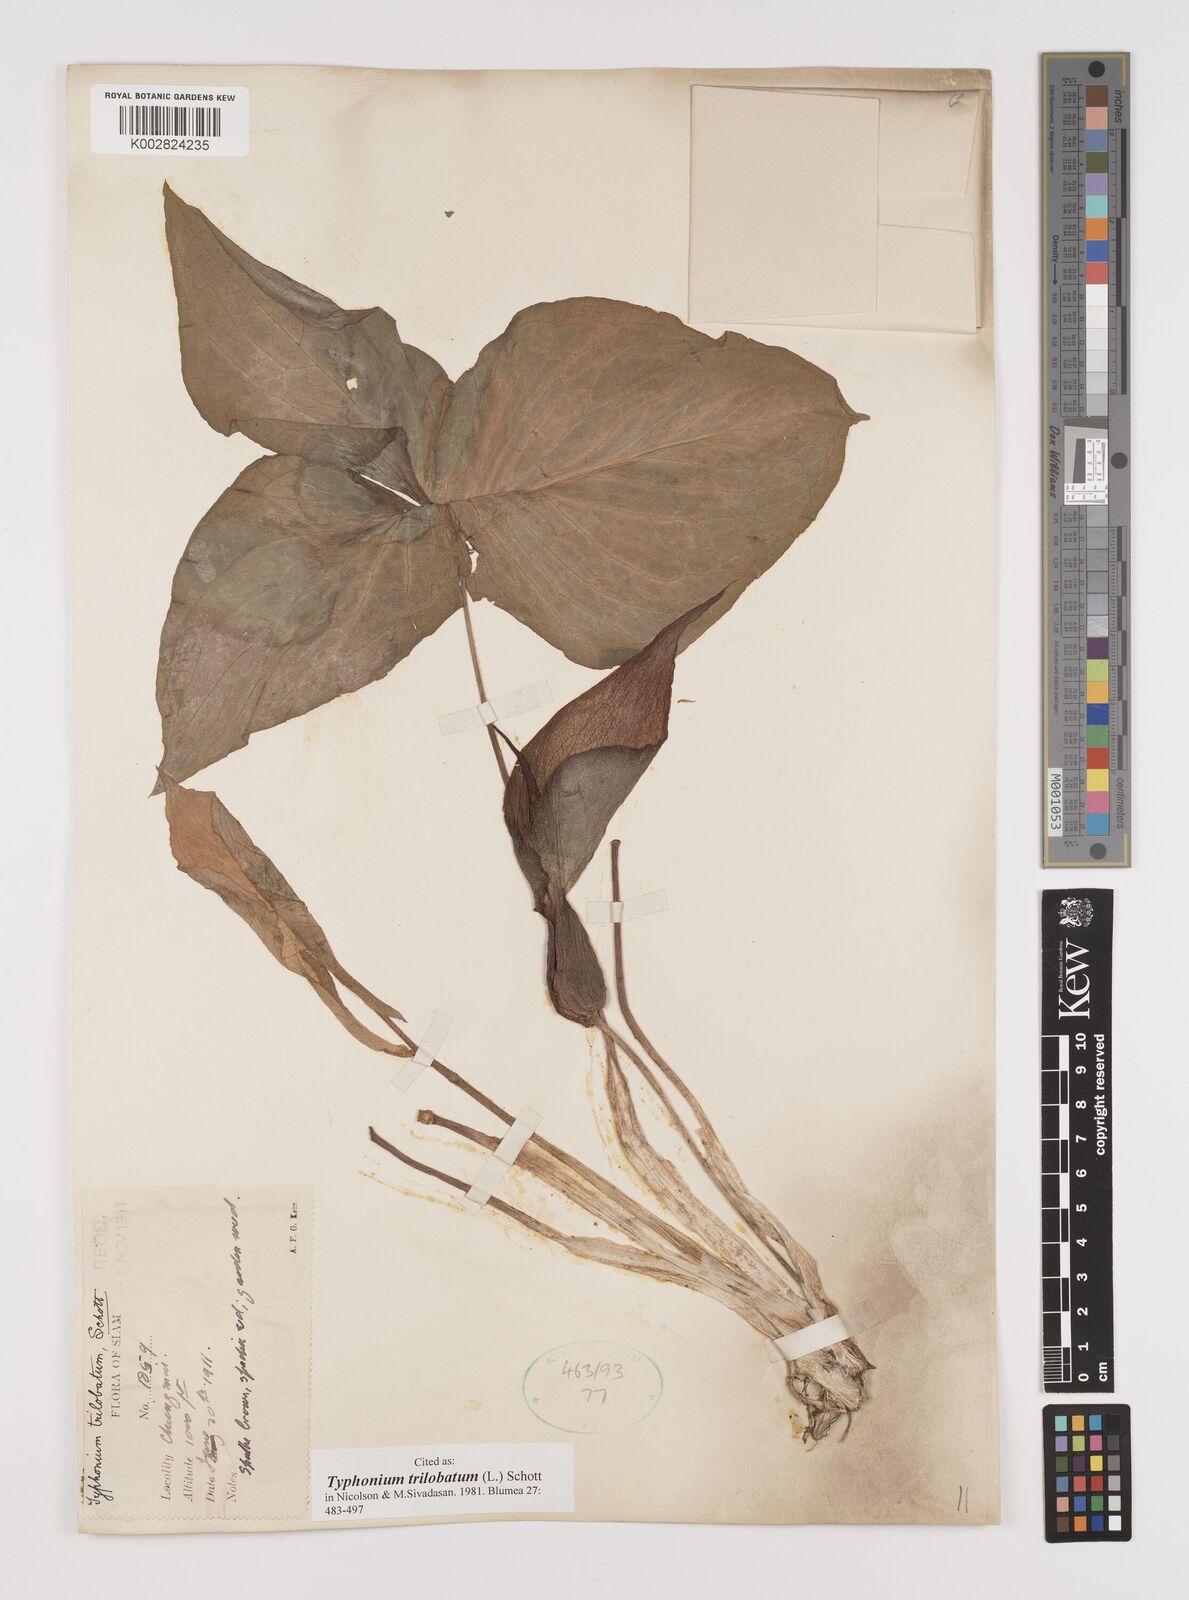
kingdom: Plantae
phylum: Tracheophyta
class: Liliopsida
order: Alismatales
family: Araceae
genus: Typhonium
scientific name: Typhonium trilobatum
